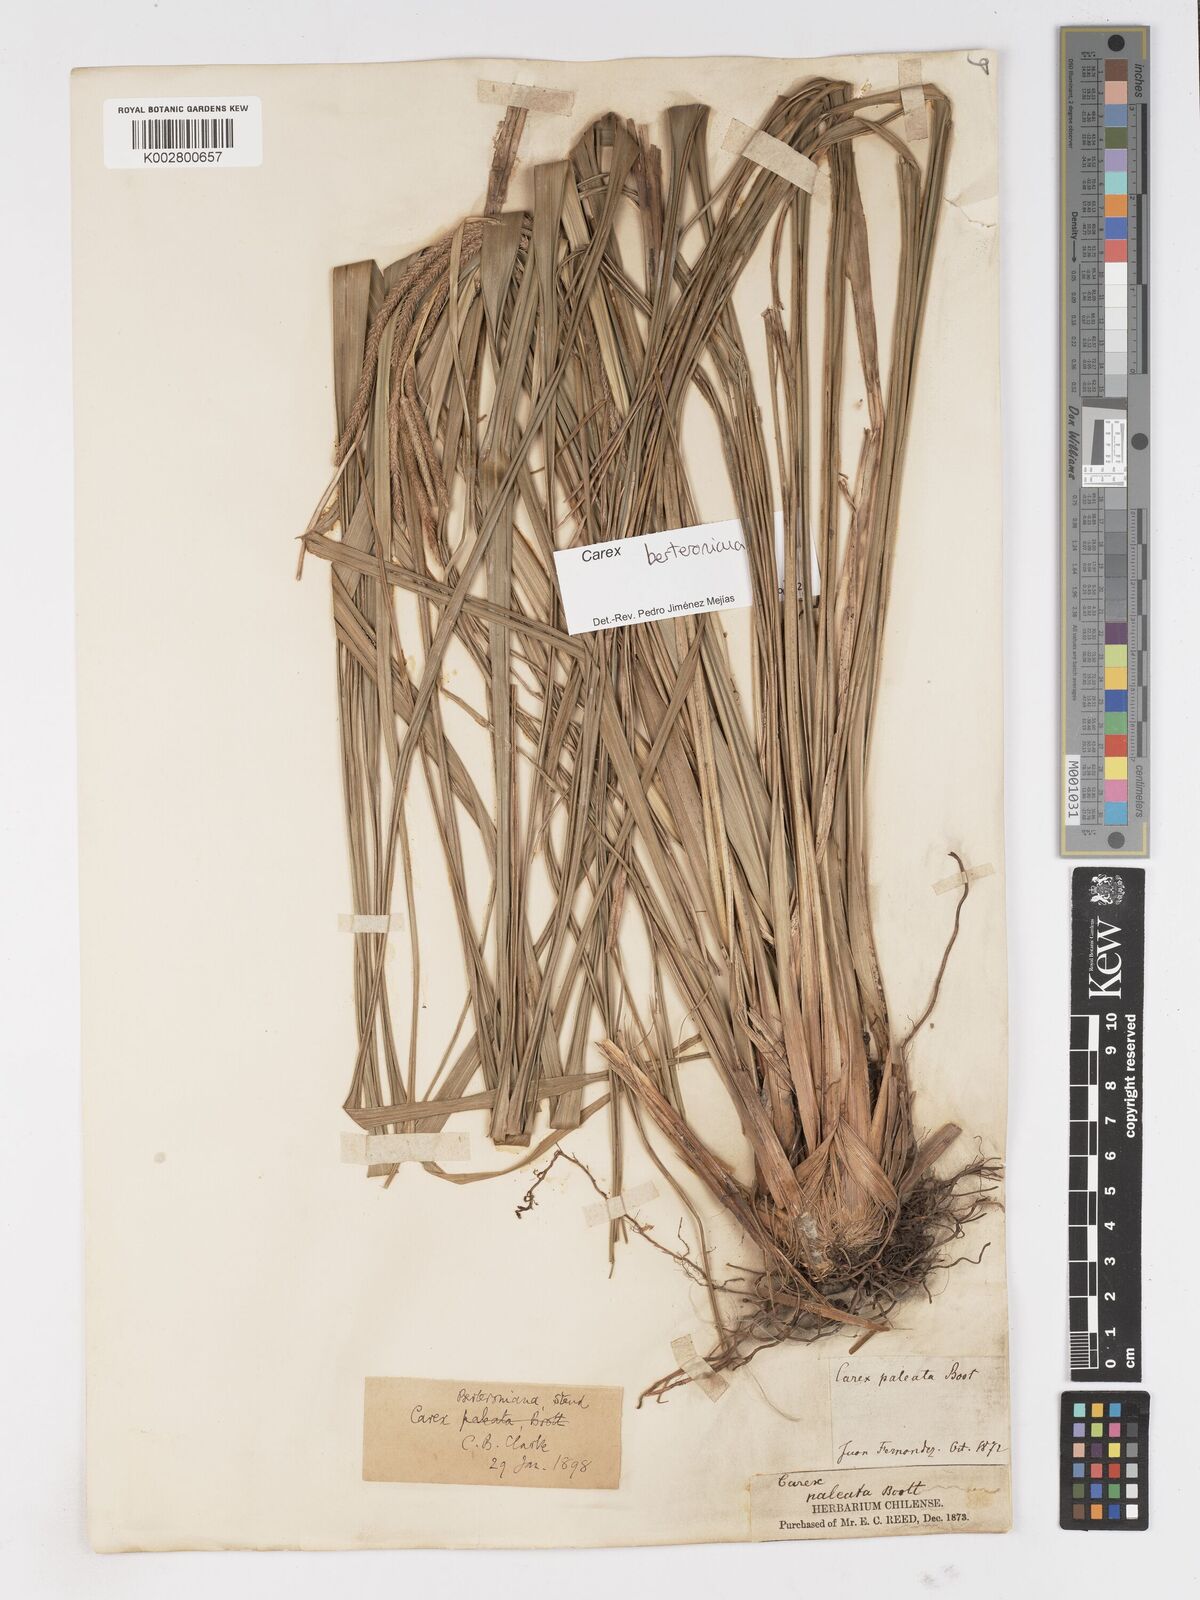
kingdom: Plantae
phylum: Tracheophyta
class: Liliopsida
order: Poales
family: Cyperaceae
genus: Carex
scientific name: Carex berteroniana
